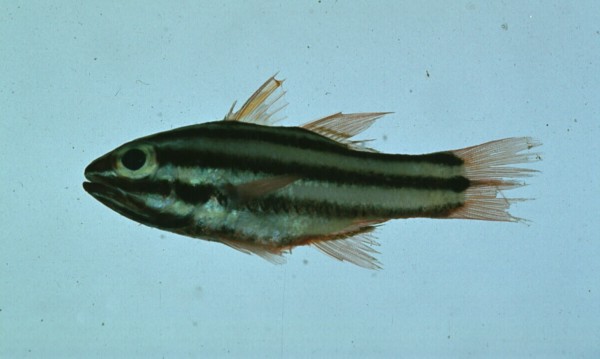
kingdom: Animalia
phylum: Chordata
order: Perciformes
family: Apogonidae
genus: Ostorhinchus
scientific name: Ostorhinchus angustatus
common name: Narrow-striped cardinalfish
